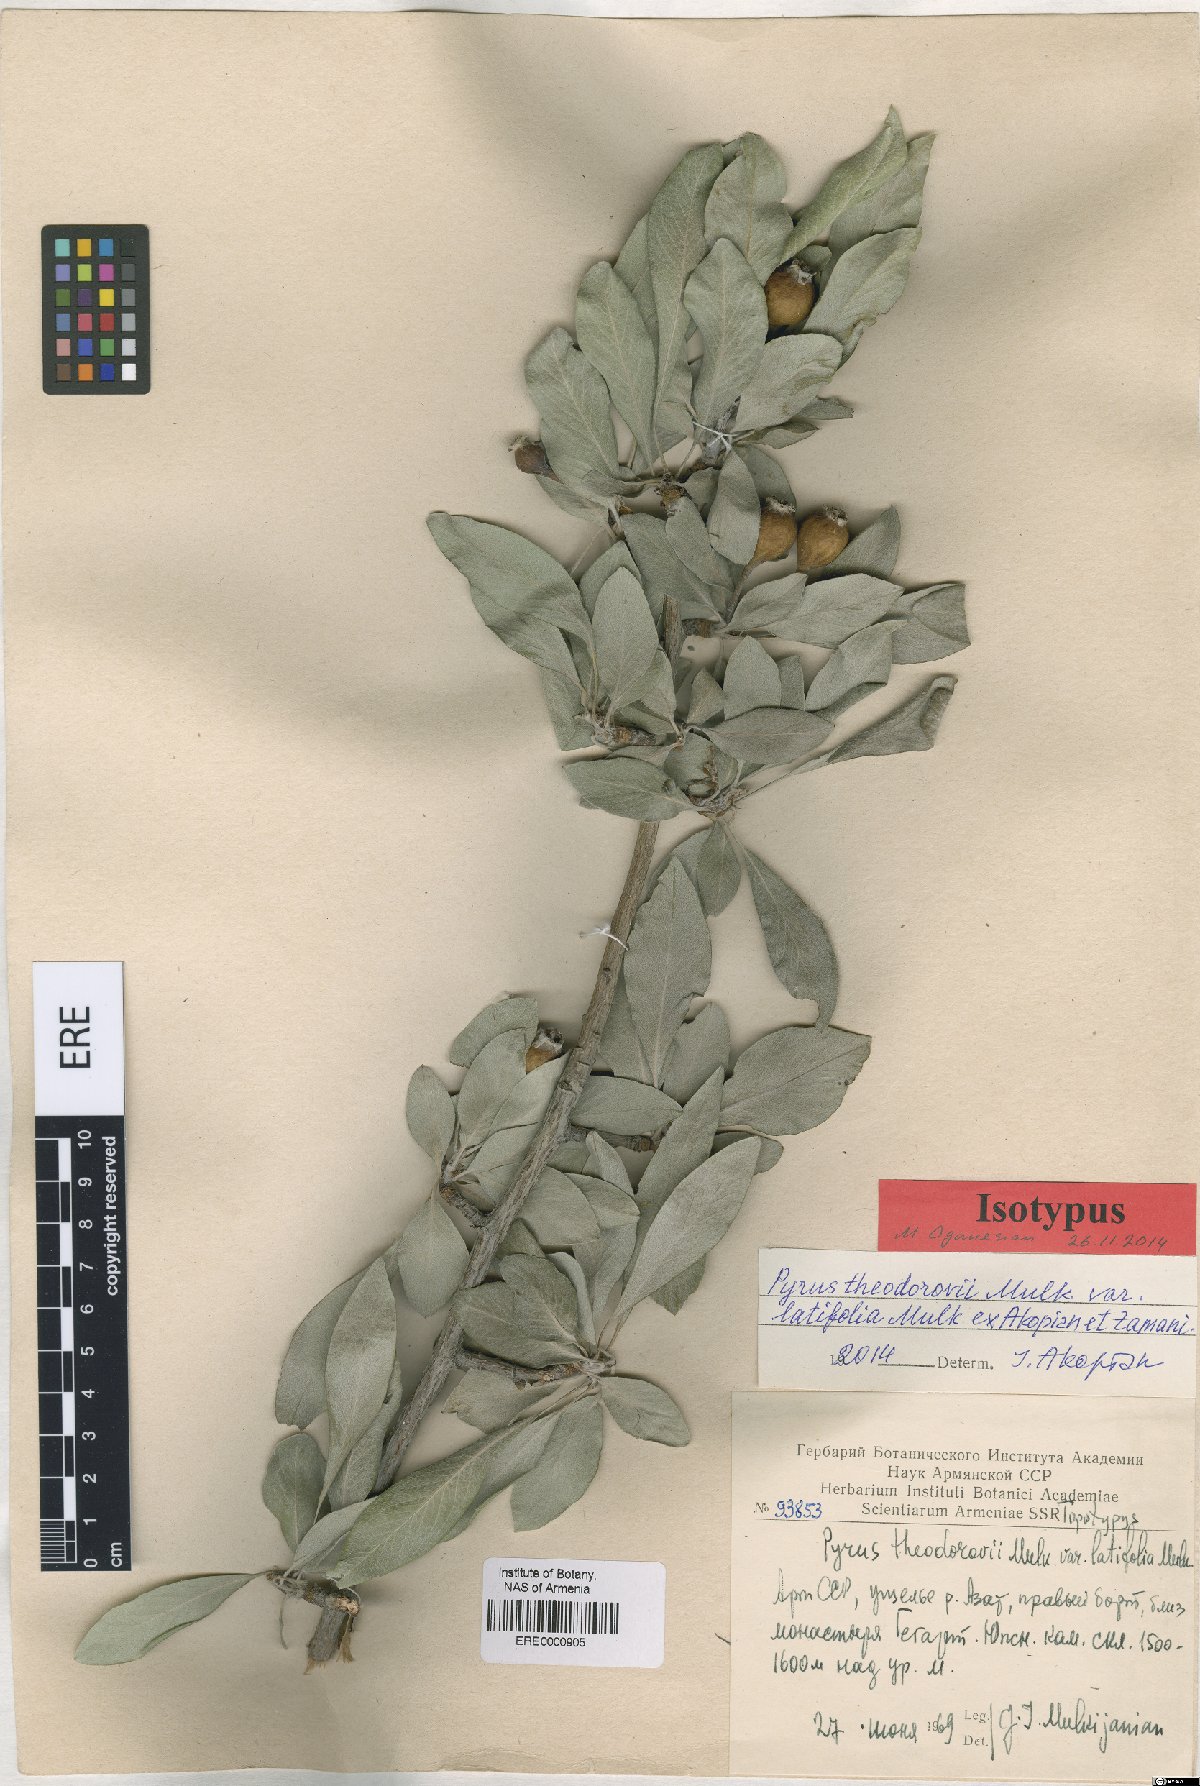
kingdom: Plantae
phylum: Tracheophyta
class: Magnoliopsida
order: Rosales
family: Rosaceae
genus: Pyrus
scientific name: Pyrus theodorovii
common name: Teodorov's pear
